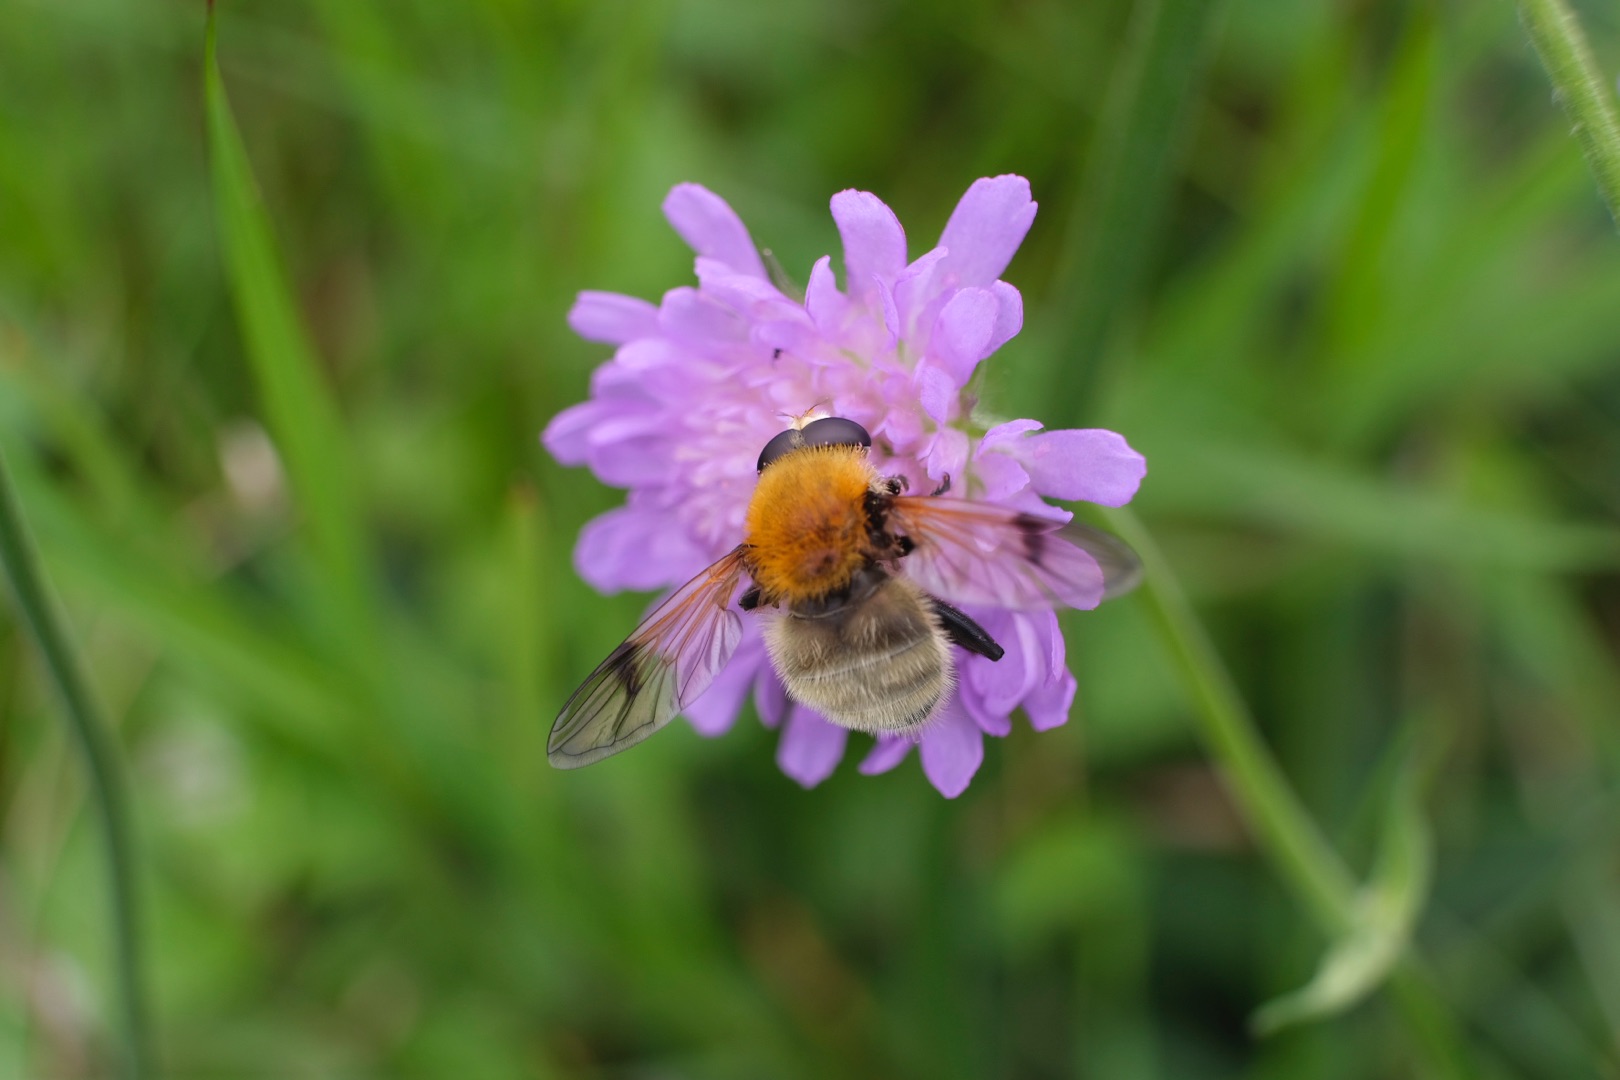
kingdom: Animalia
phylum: Arthropoda
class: Insecta
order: Diptera
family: Syrphidae
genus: Sericomyia
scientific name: Sericomyia superbiens
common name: Brun bjørnesvirreflue
